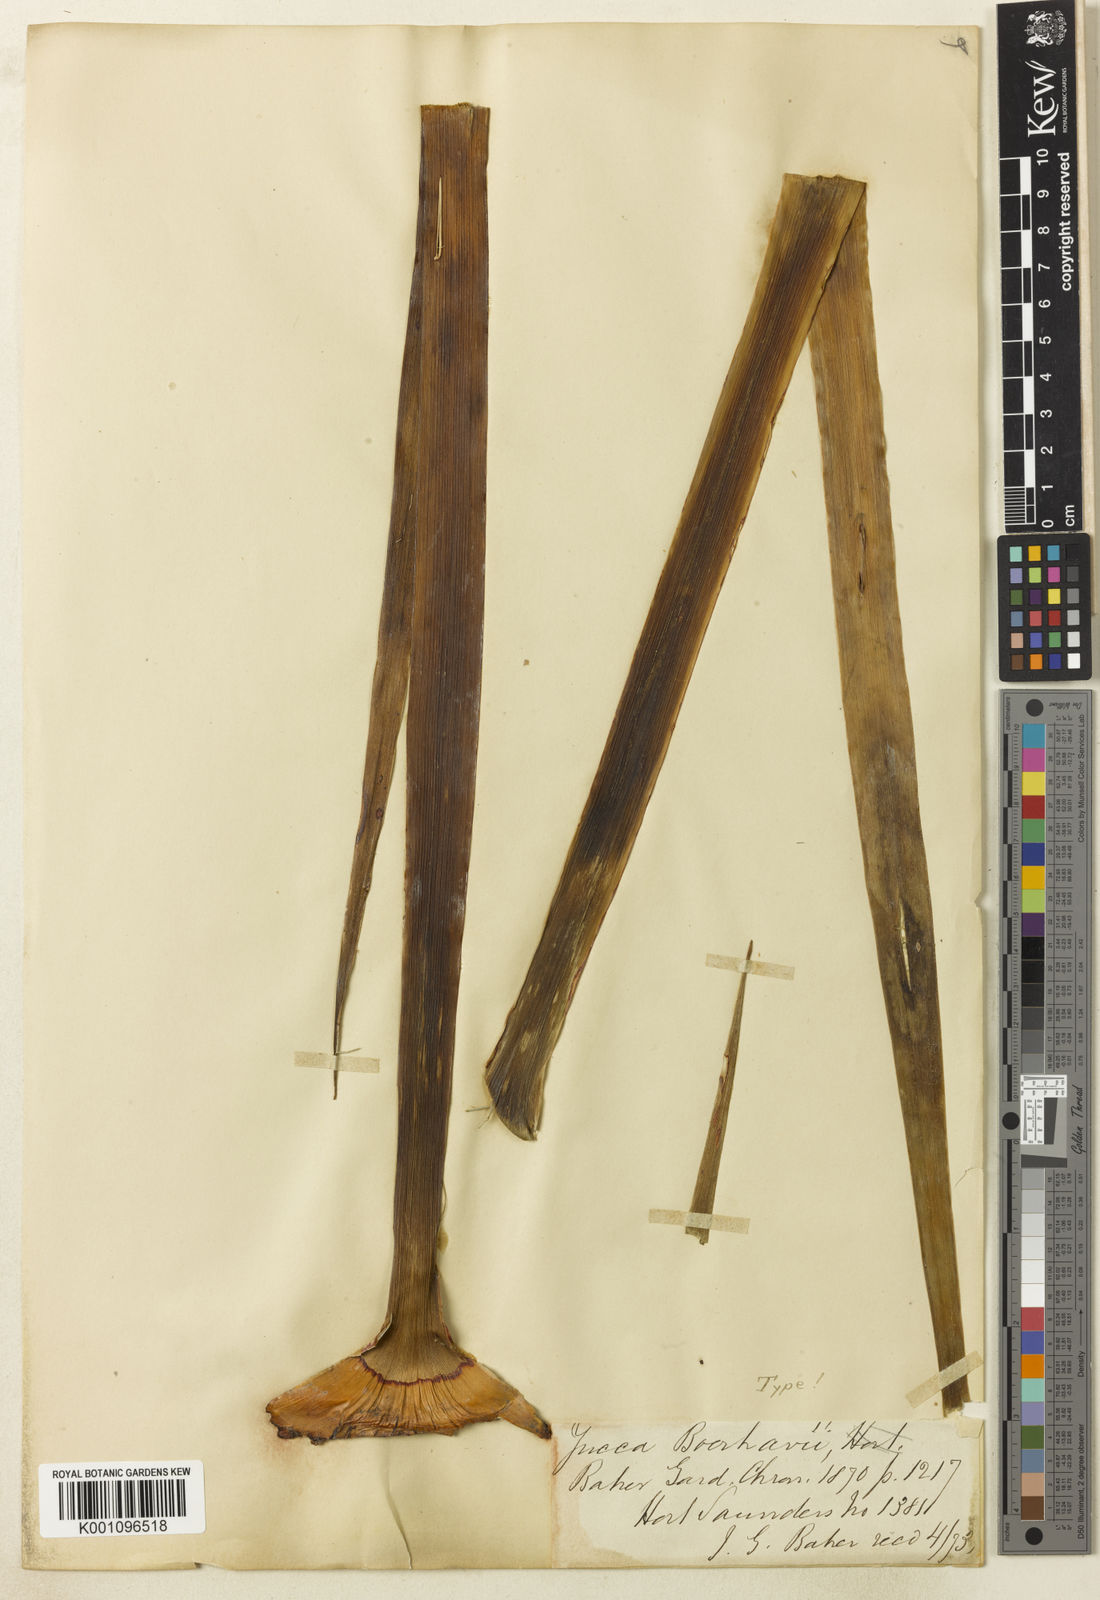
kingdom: Plantae
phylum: Tracheophyta
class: Liliopsida
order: Asparagales
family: Asparagaceae
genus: Yucca
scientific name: Yucca gloriosa
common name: Spanish-dagger
